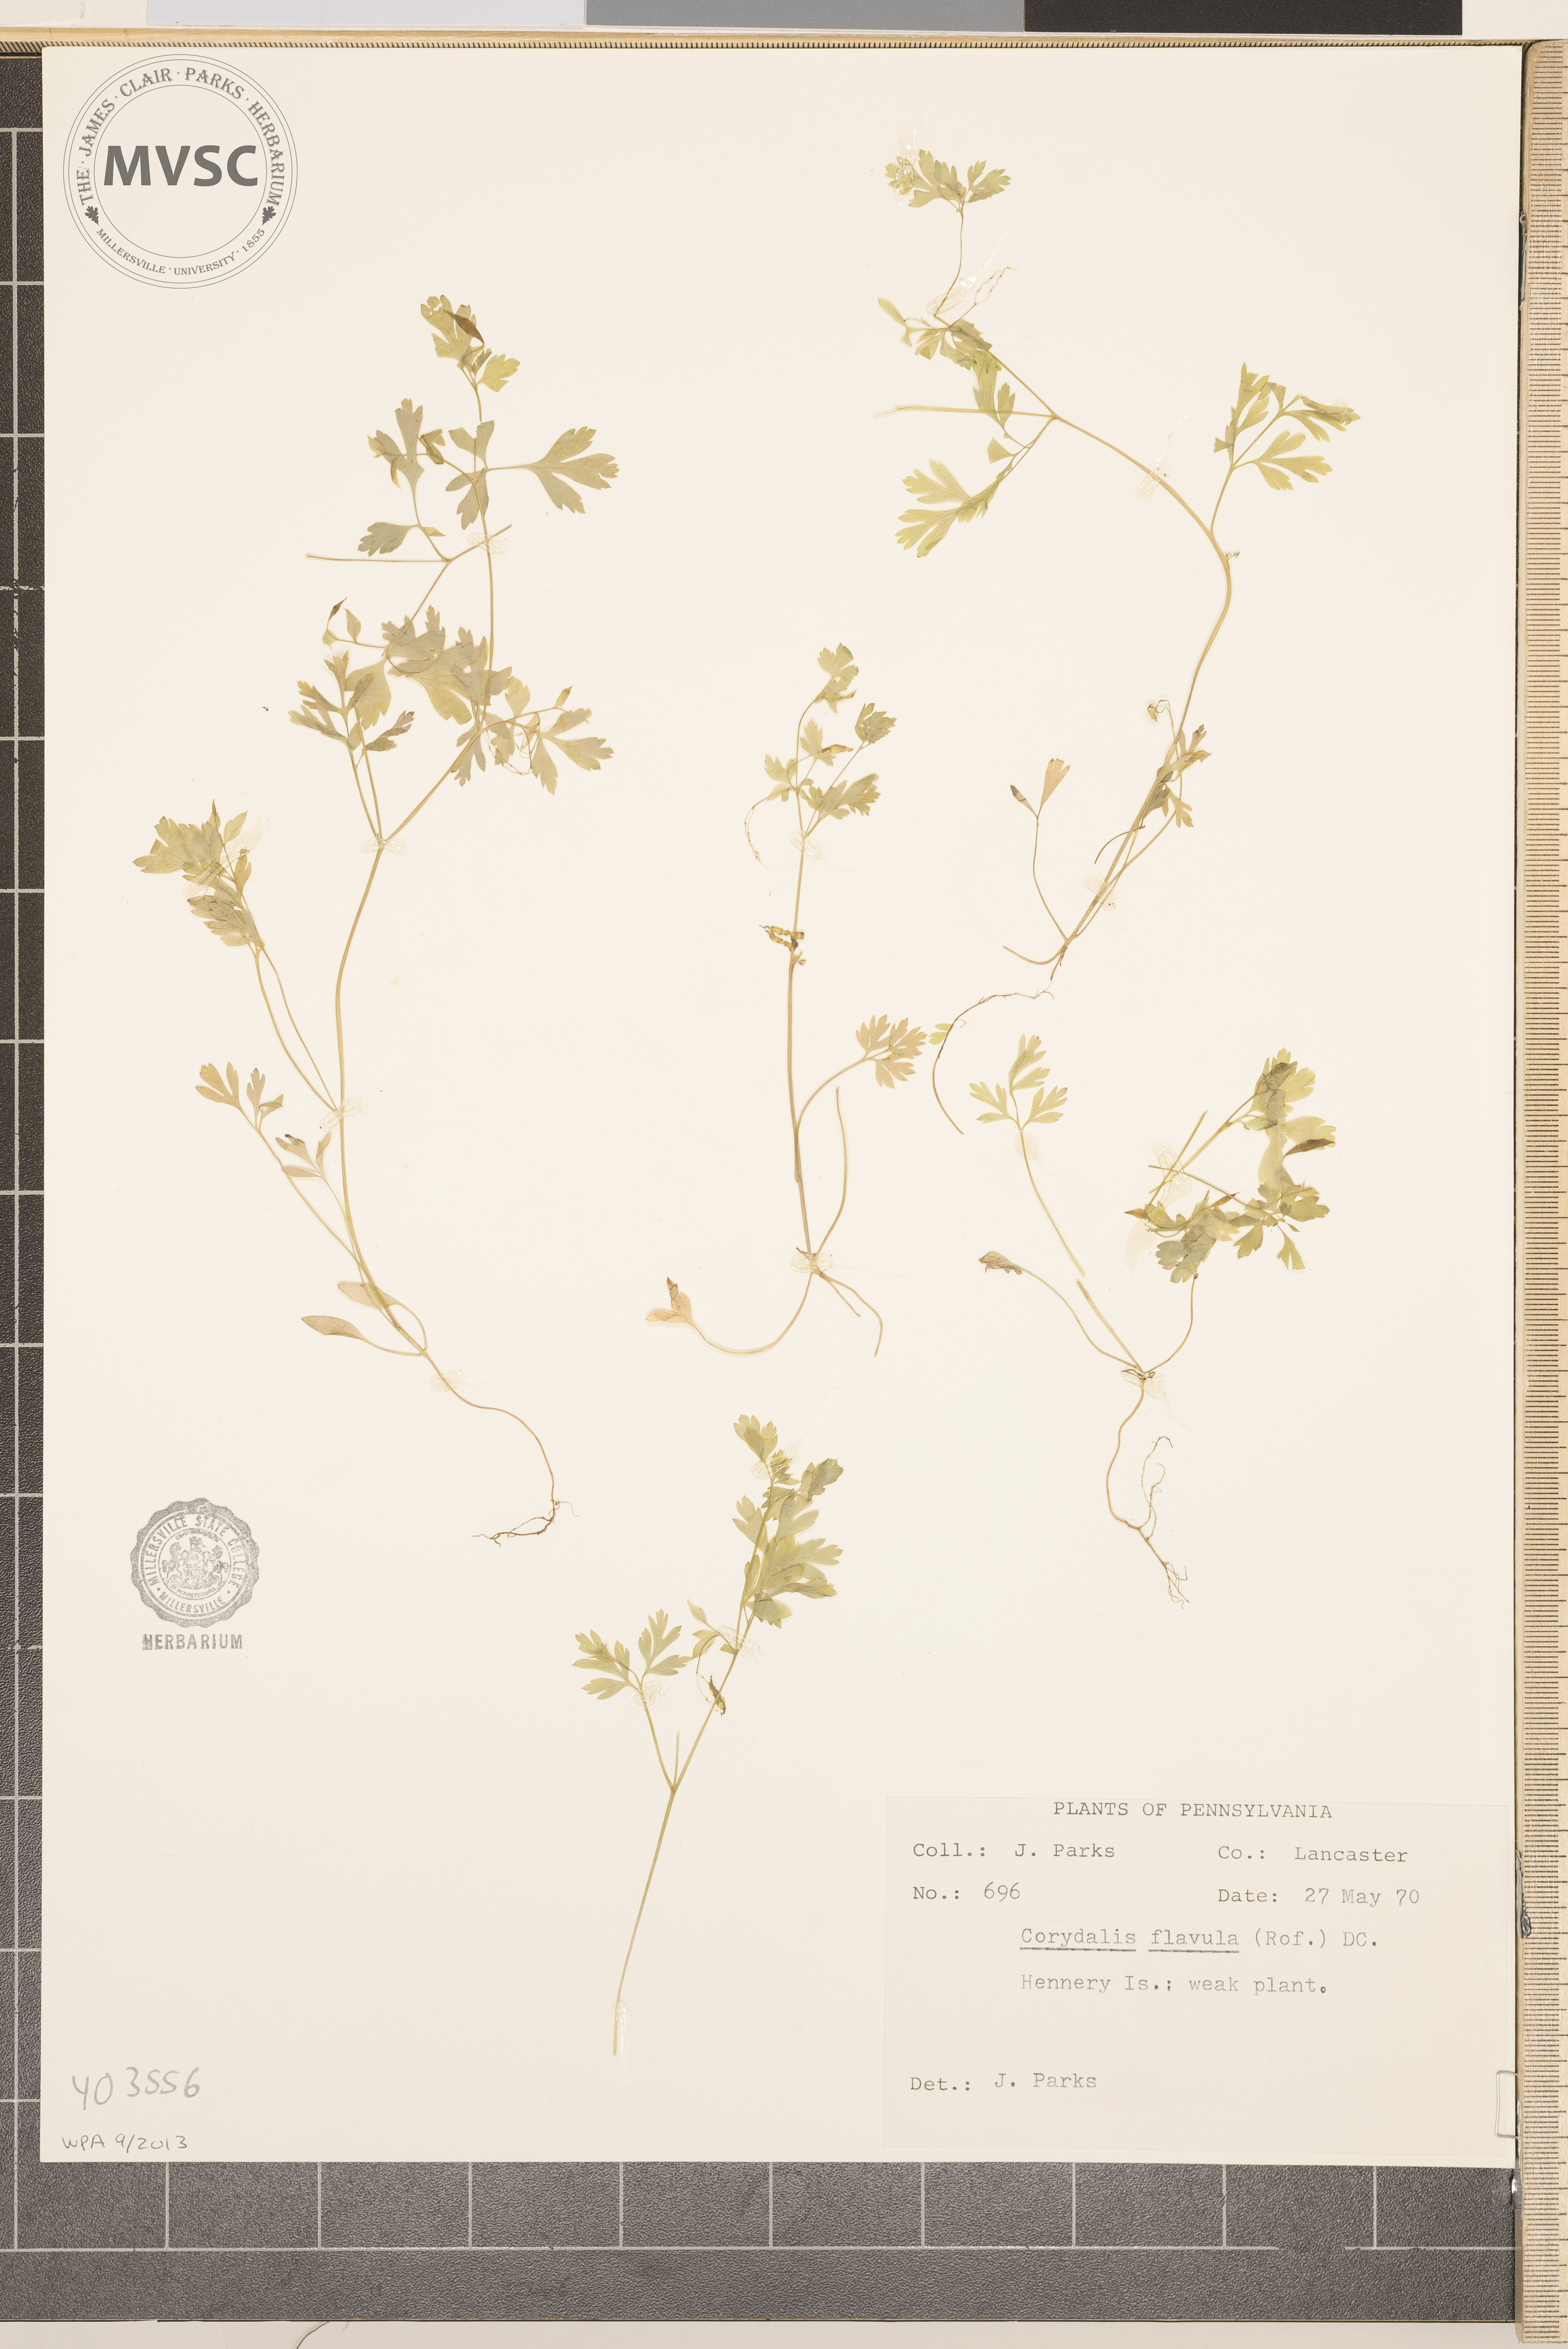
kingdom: Plantae
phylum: Tracheophyta
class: Magnoliopsida
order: Ranunculales
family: Papaveraceae
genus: Corydalis
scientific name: Corydalis flavula
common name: Yellow corydalis
